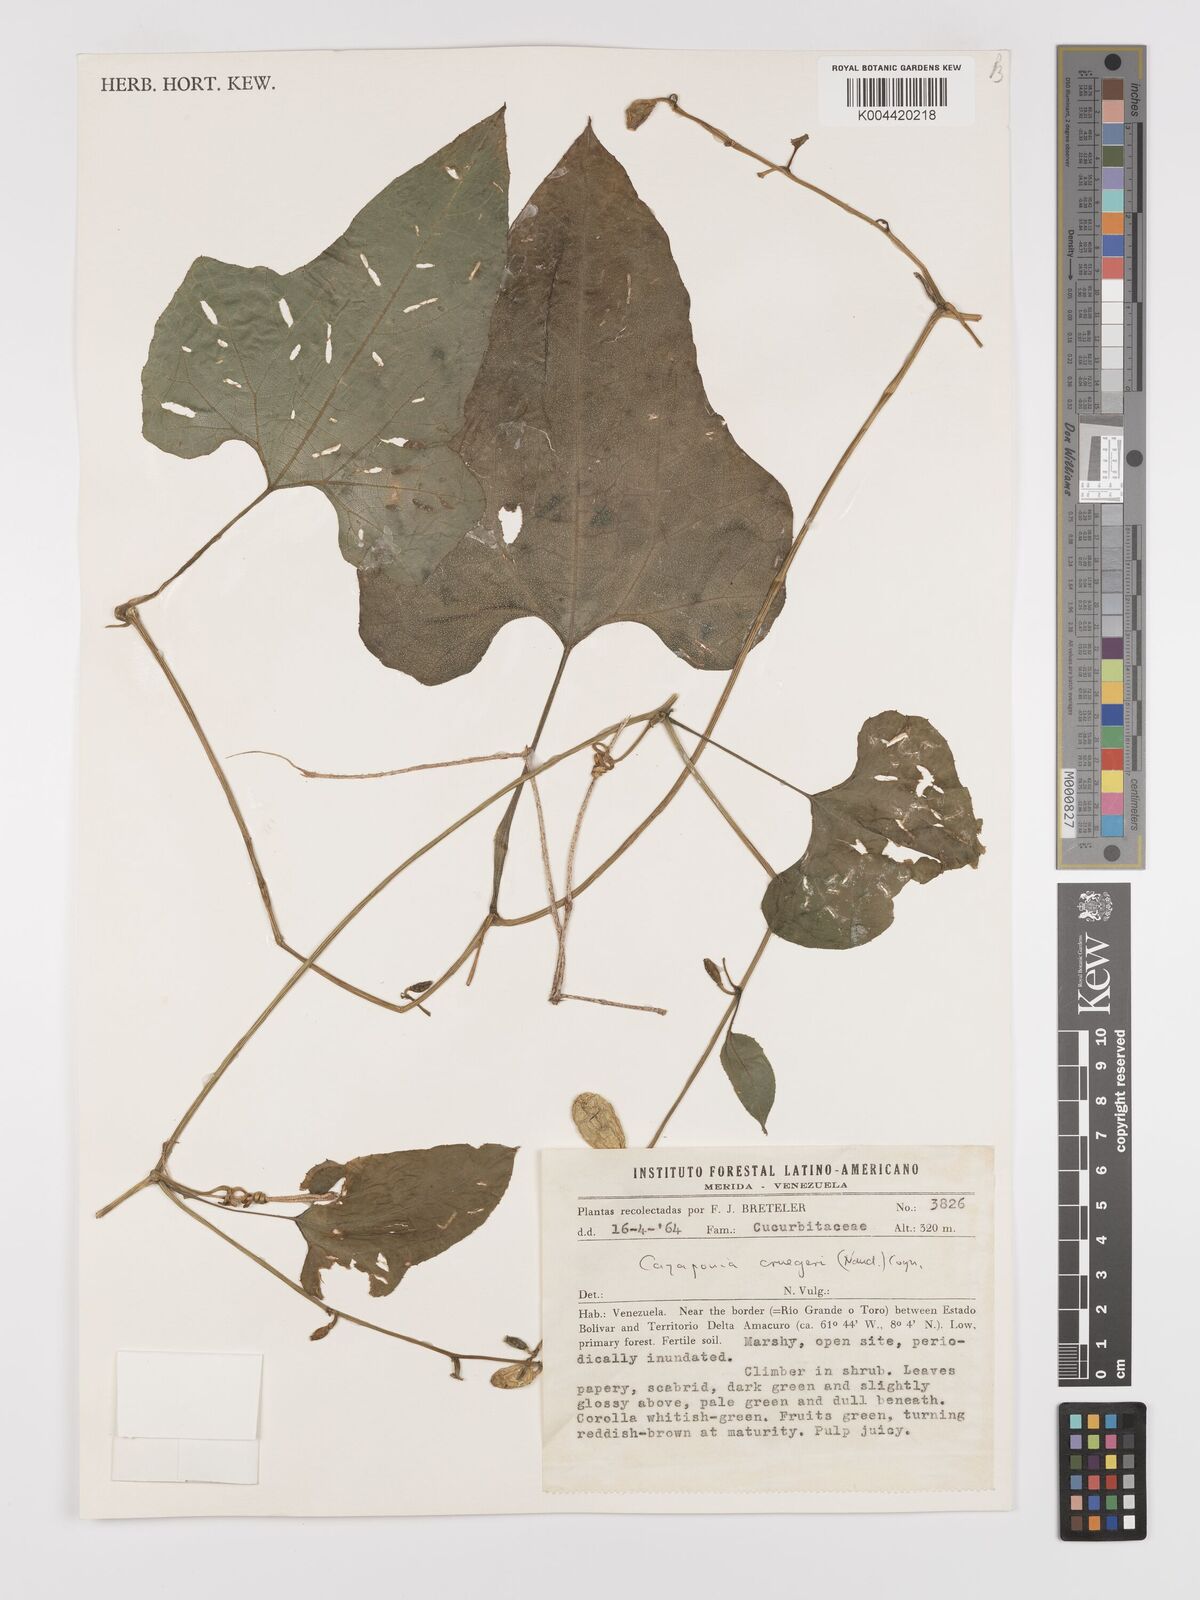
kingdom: Plantae
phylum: Tracheophyta
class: Magnoliopsida
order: Cucurbitales
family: Cucurbitaceae
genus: Cayaponia
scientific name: Cayaponia cruegeri
